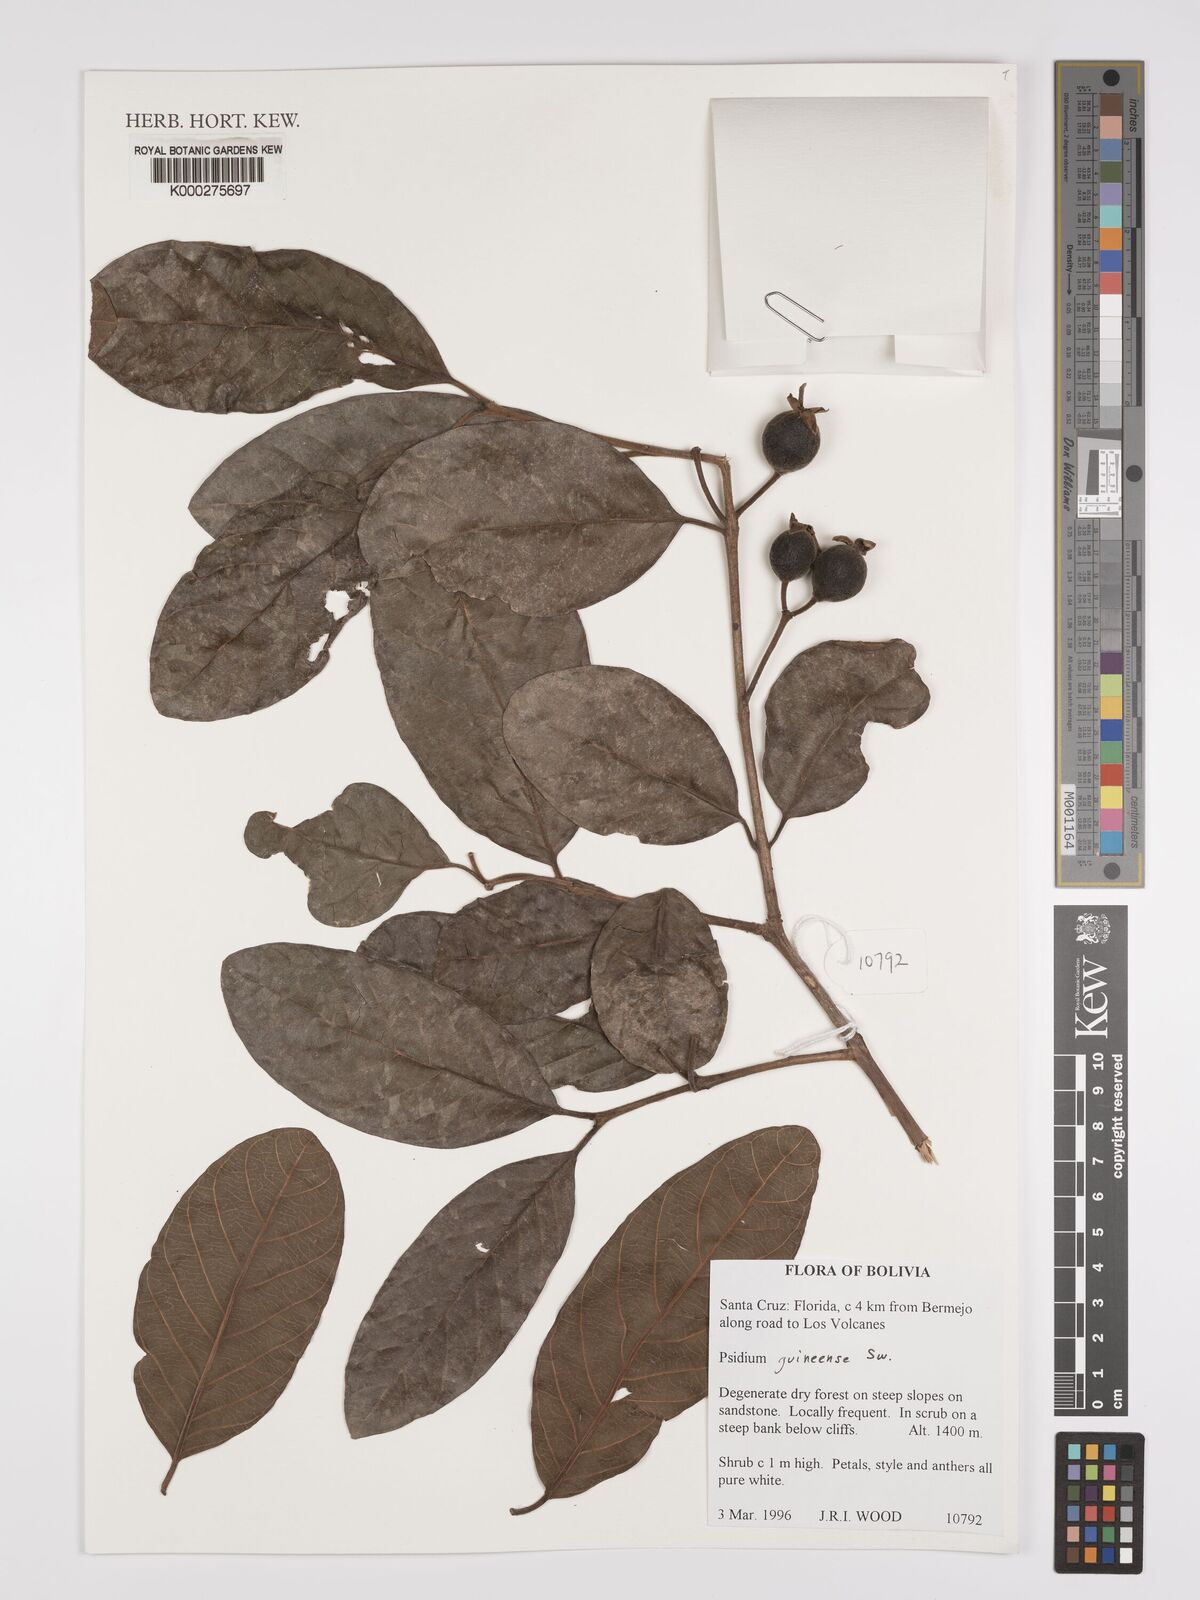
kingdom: Plantae
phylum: Tracheophyta
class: Magnoliopsida
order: Myrtales
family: Myrtaceae
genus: Psidium
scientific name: Psidium guineense
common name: Brazilian guava
